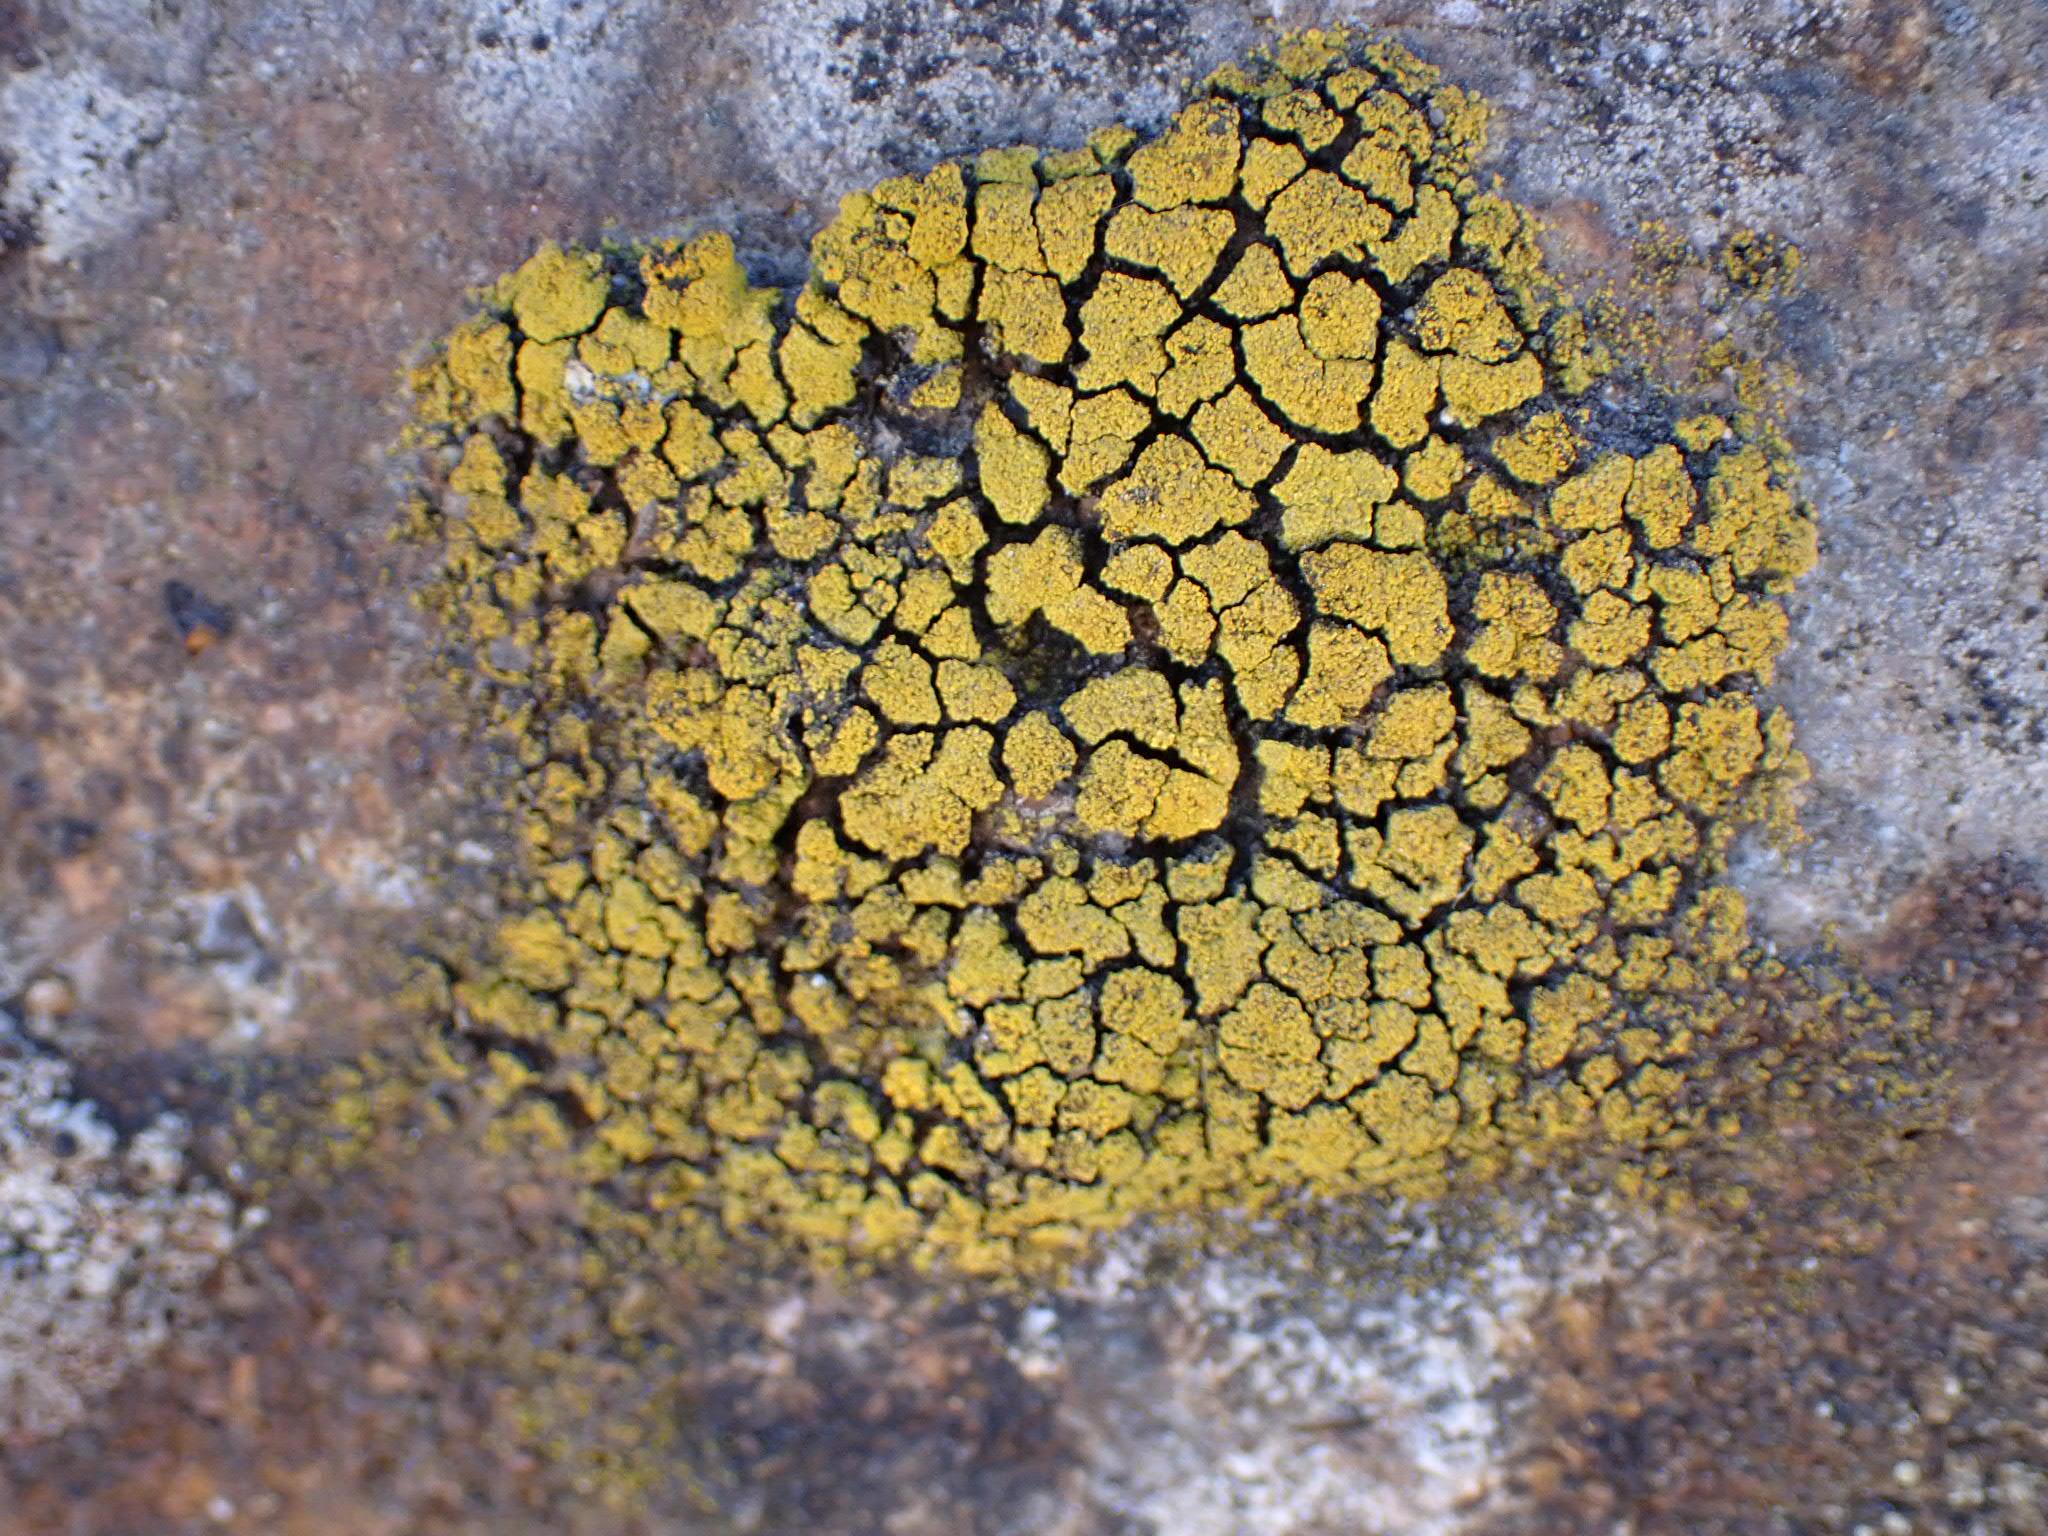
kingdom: Fungi
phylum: Ascomycota
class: Candelariomycetes
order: Candelariales
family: Candelariaceae
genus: Candelariella
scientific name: Candelariella vitellina
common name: almindelig æggeblommelav
